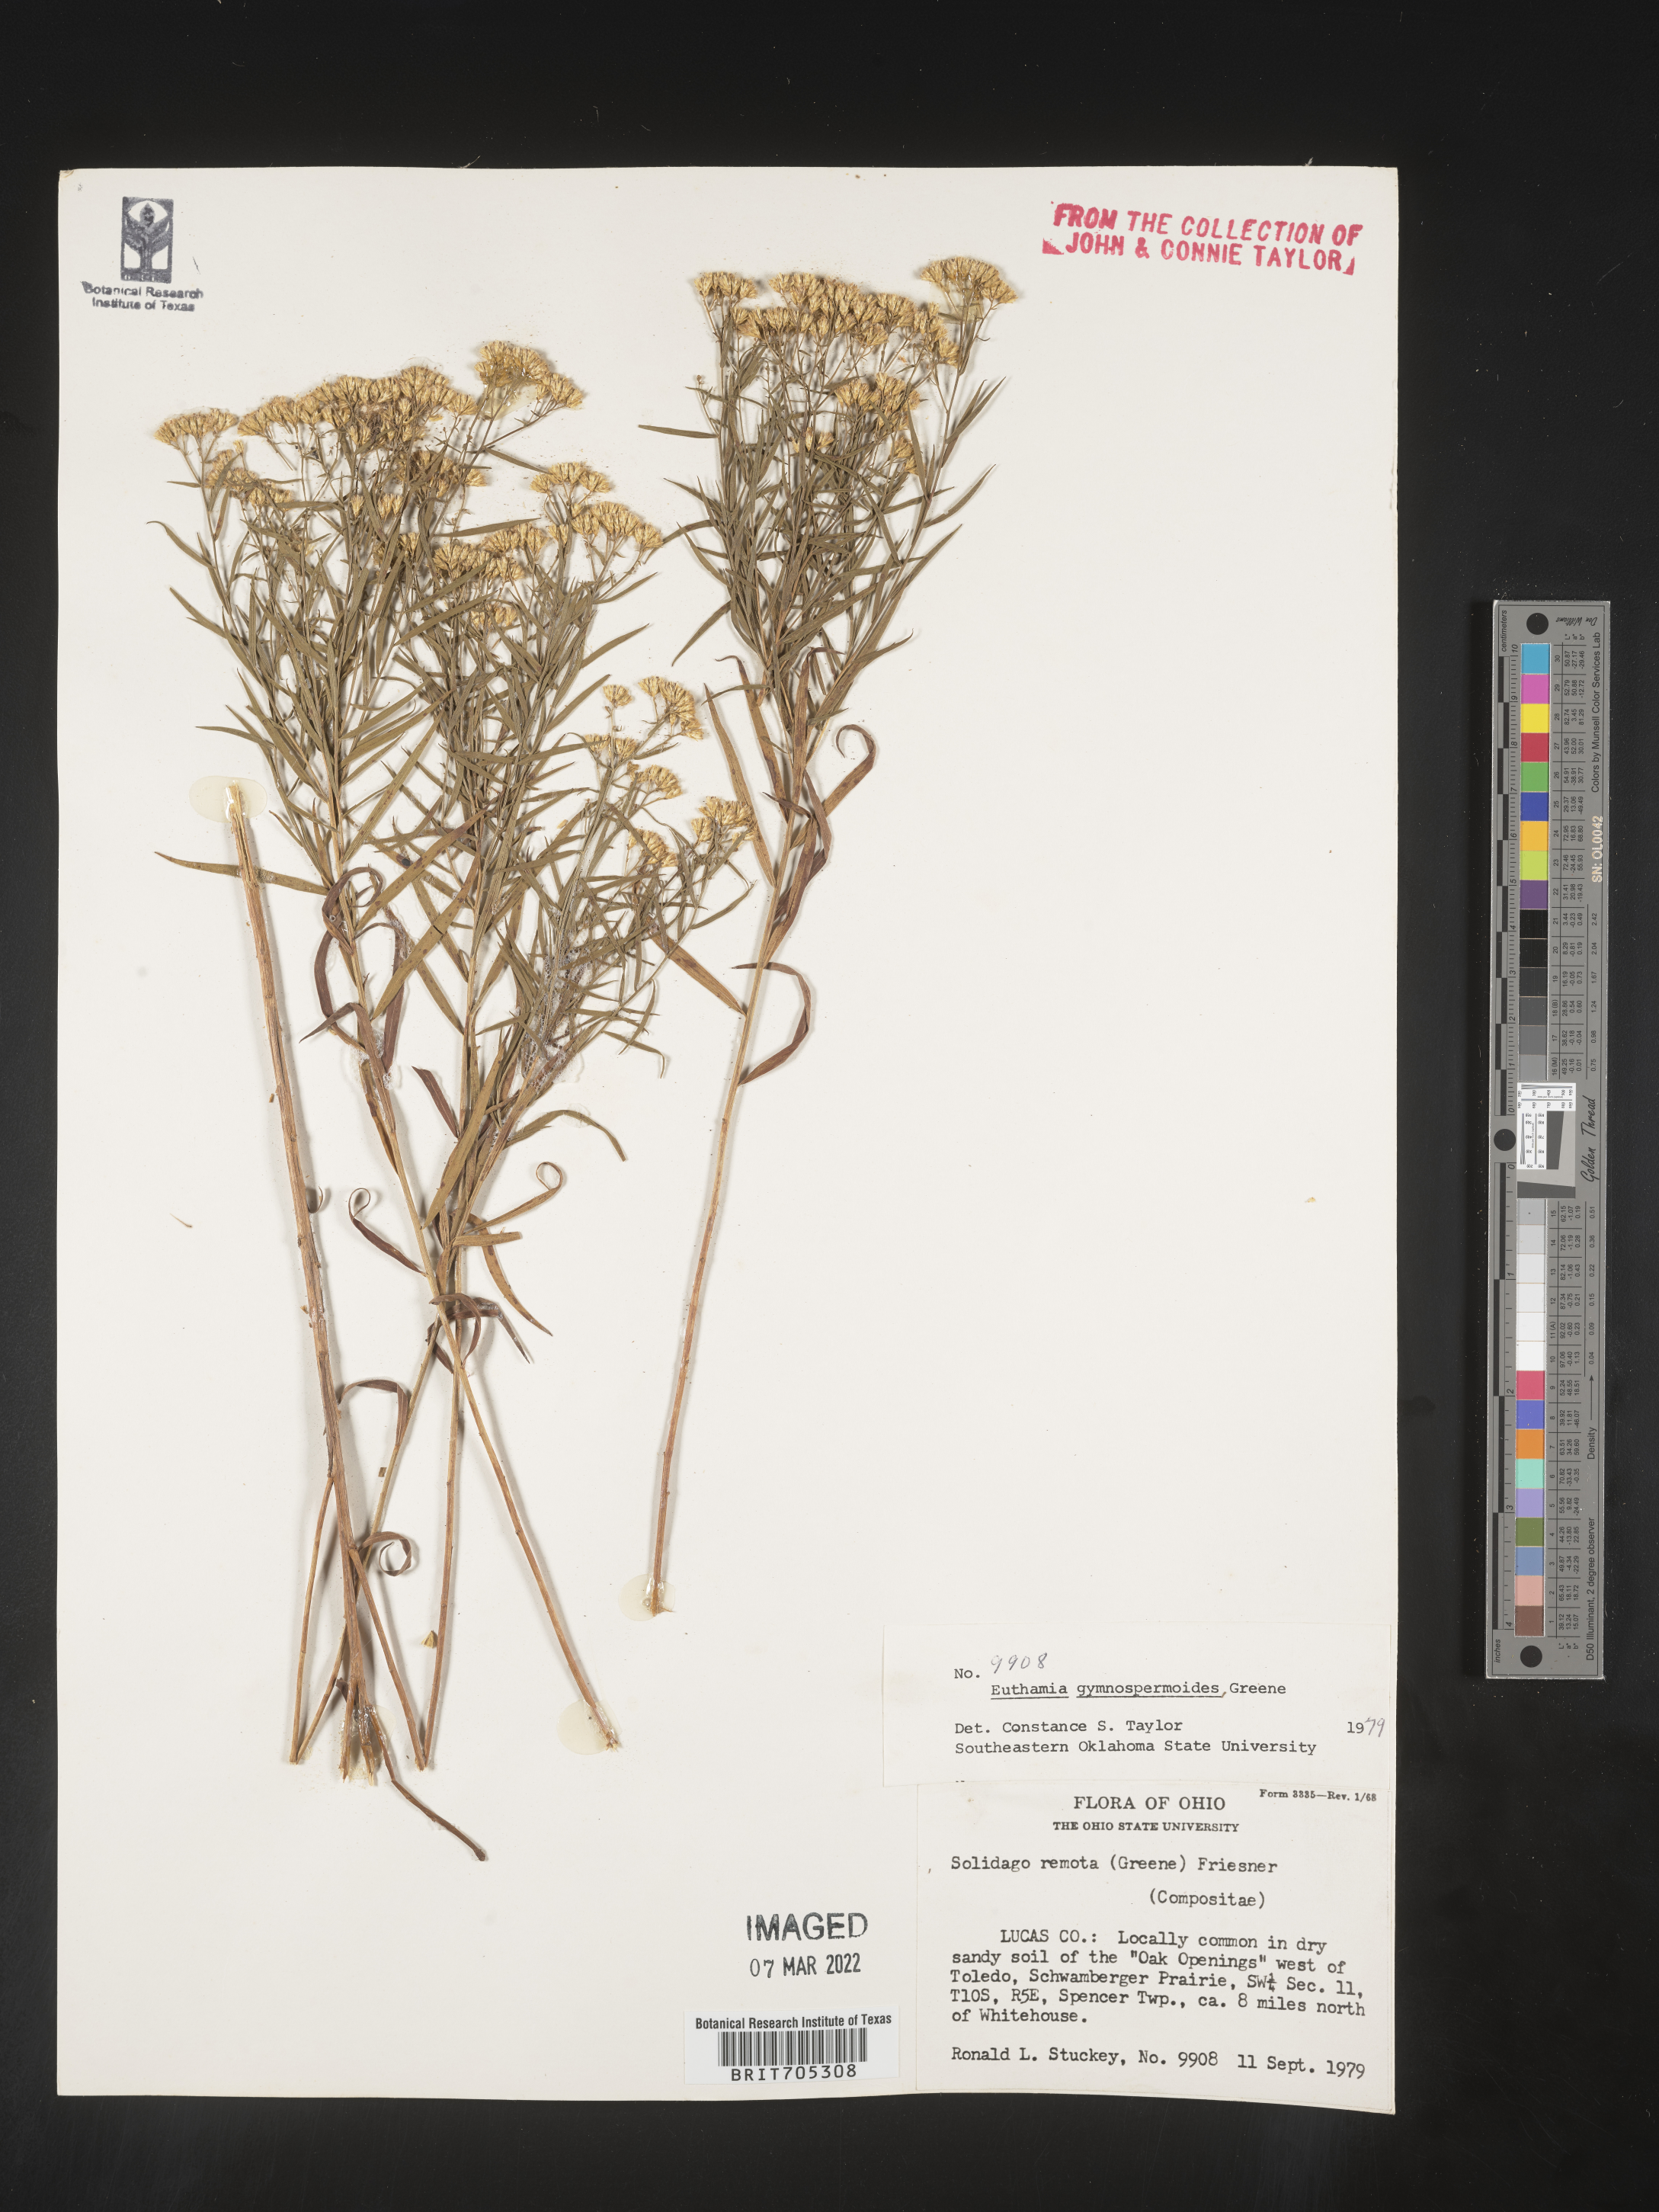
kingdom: Plantae
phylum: Tracheophyta
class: Magnoliopsida
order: Asterales
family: Asteraceae
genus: Euthamia
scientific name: Euthamia gymnospermoides
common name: Great plains goldentop
